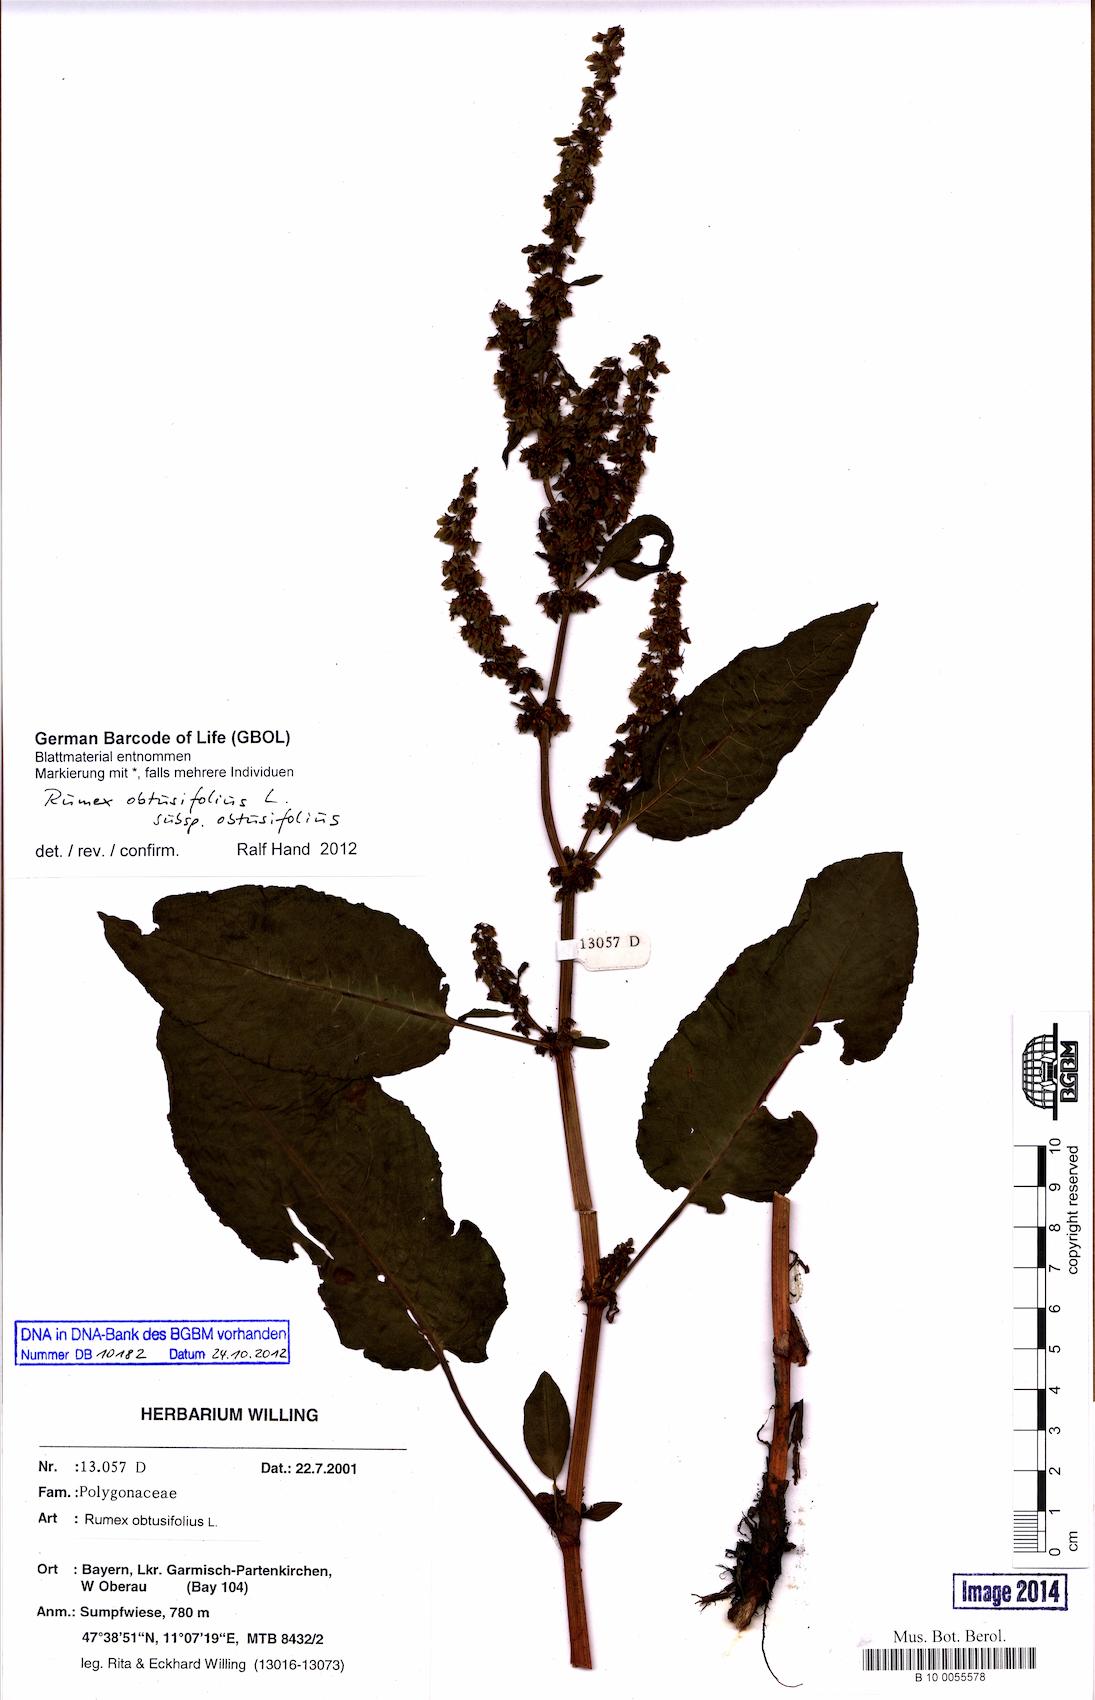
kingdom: Plantae
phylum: Tracheophyta
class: Magnoliopsida
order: Caryophyllales
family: Polygonaceae
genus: Rumex
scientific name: Rumex obtusifolius
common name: Bitter dock
